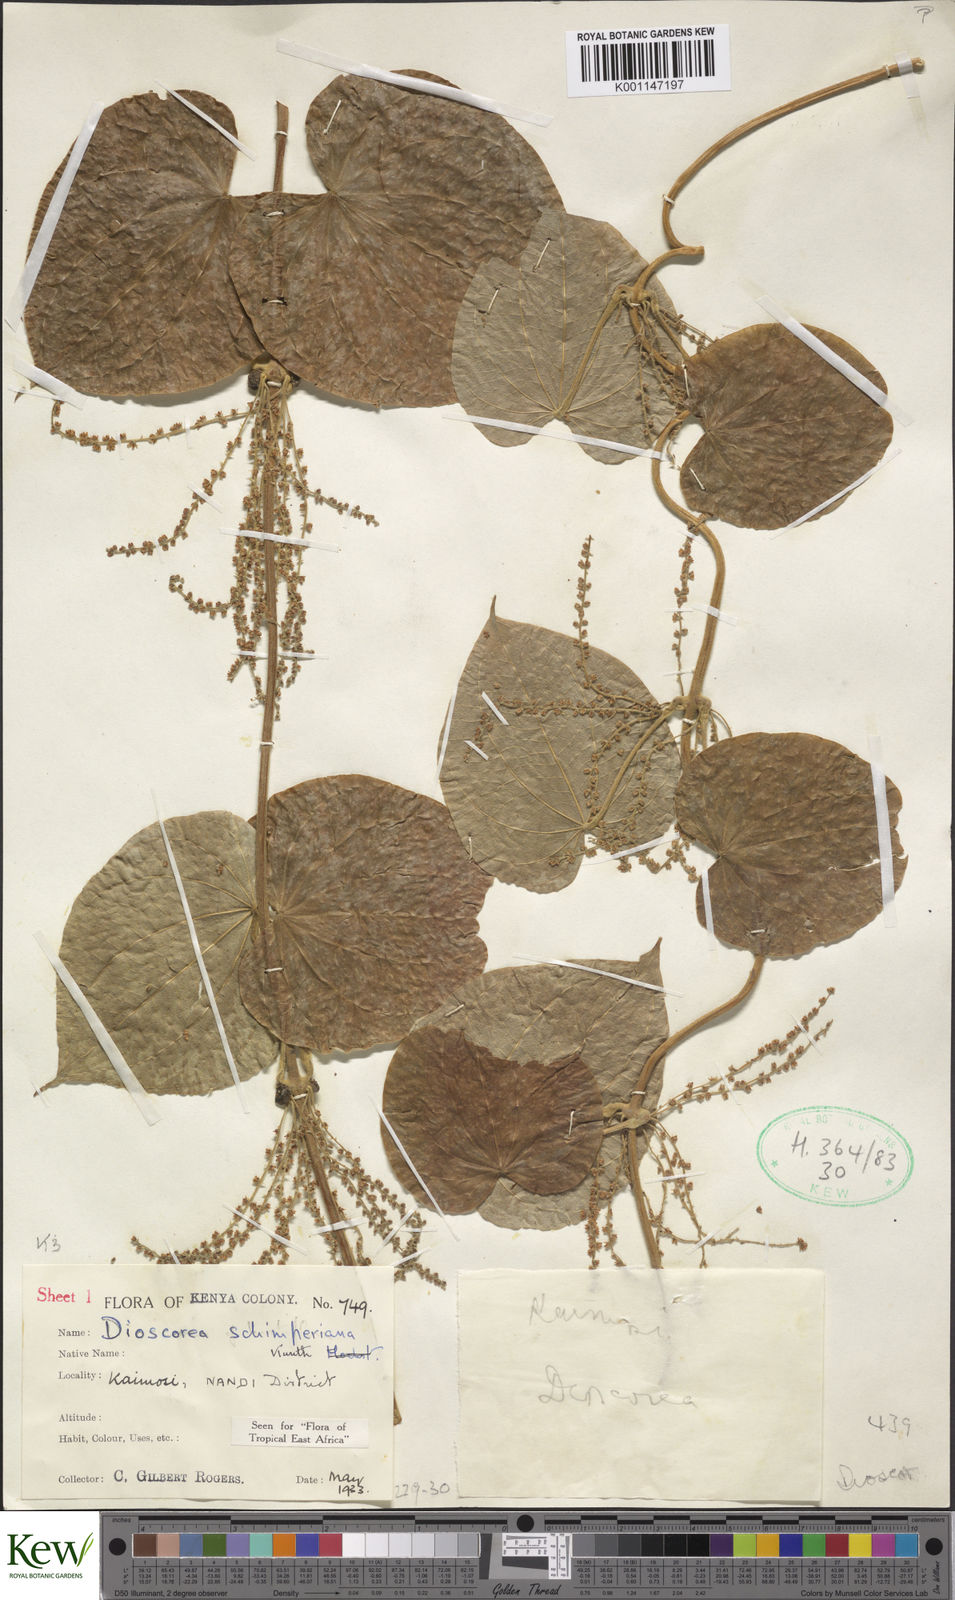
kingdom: Plantae
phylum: Tracheophyta
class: Liliopsida
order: Dioscoreales
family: Dioscoreaceae
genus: Dioscorea
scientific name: Dioscorea schimperiana
